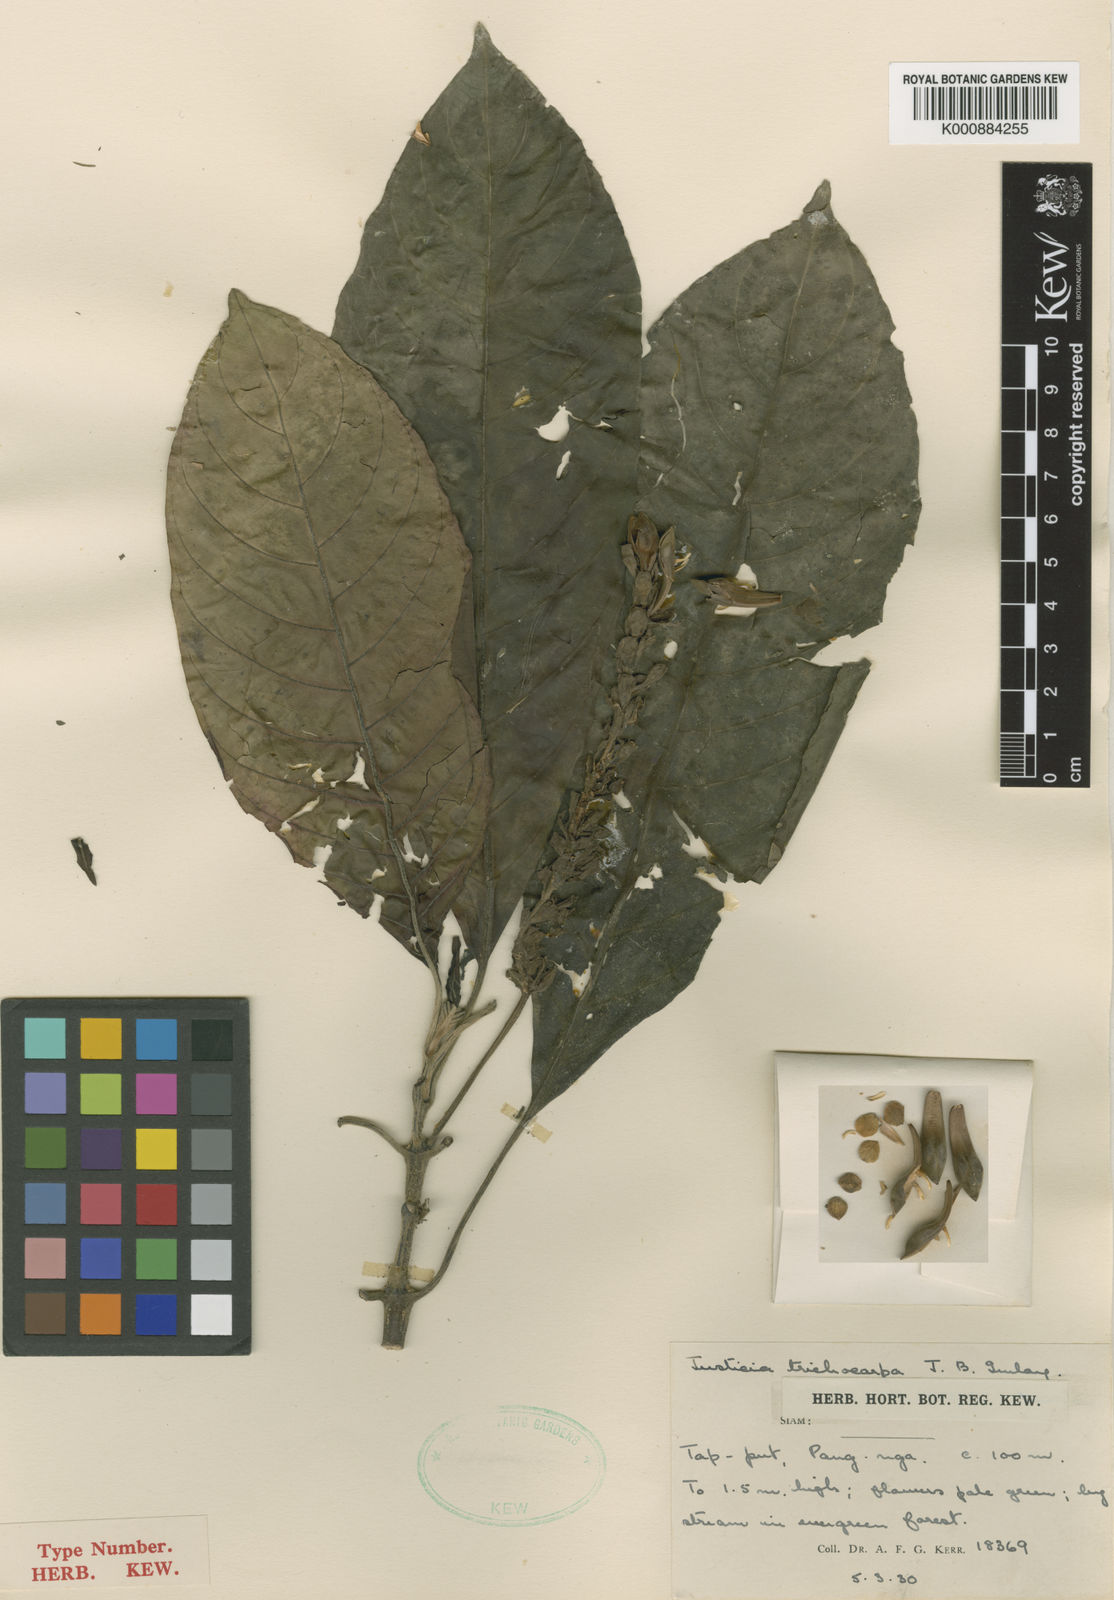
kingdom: Plantae
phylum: Tracheophyta
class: Magnoliopsida
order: Lamiales
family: Acanthaceae
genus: Justicia
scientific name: Justicia oreophila
